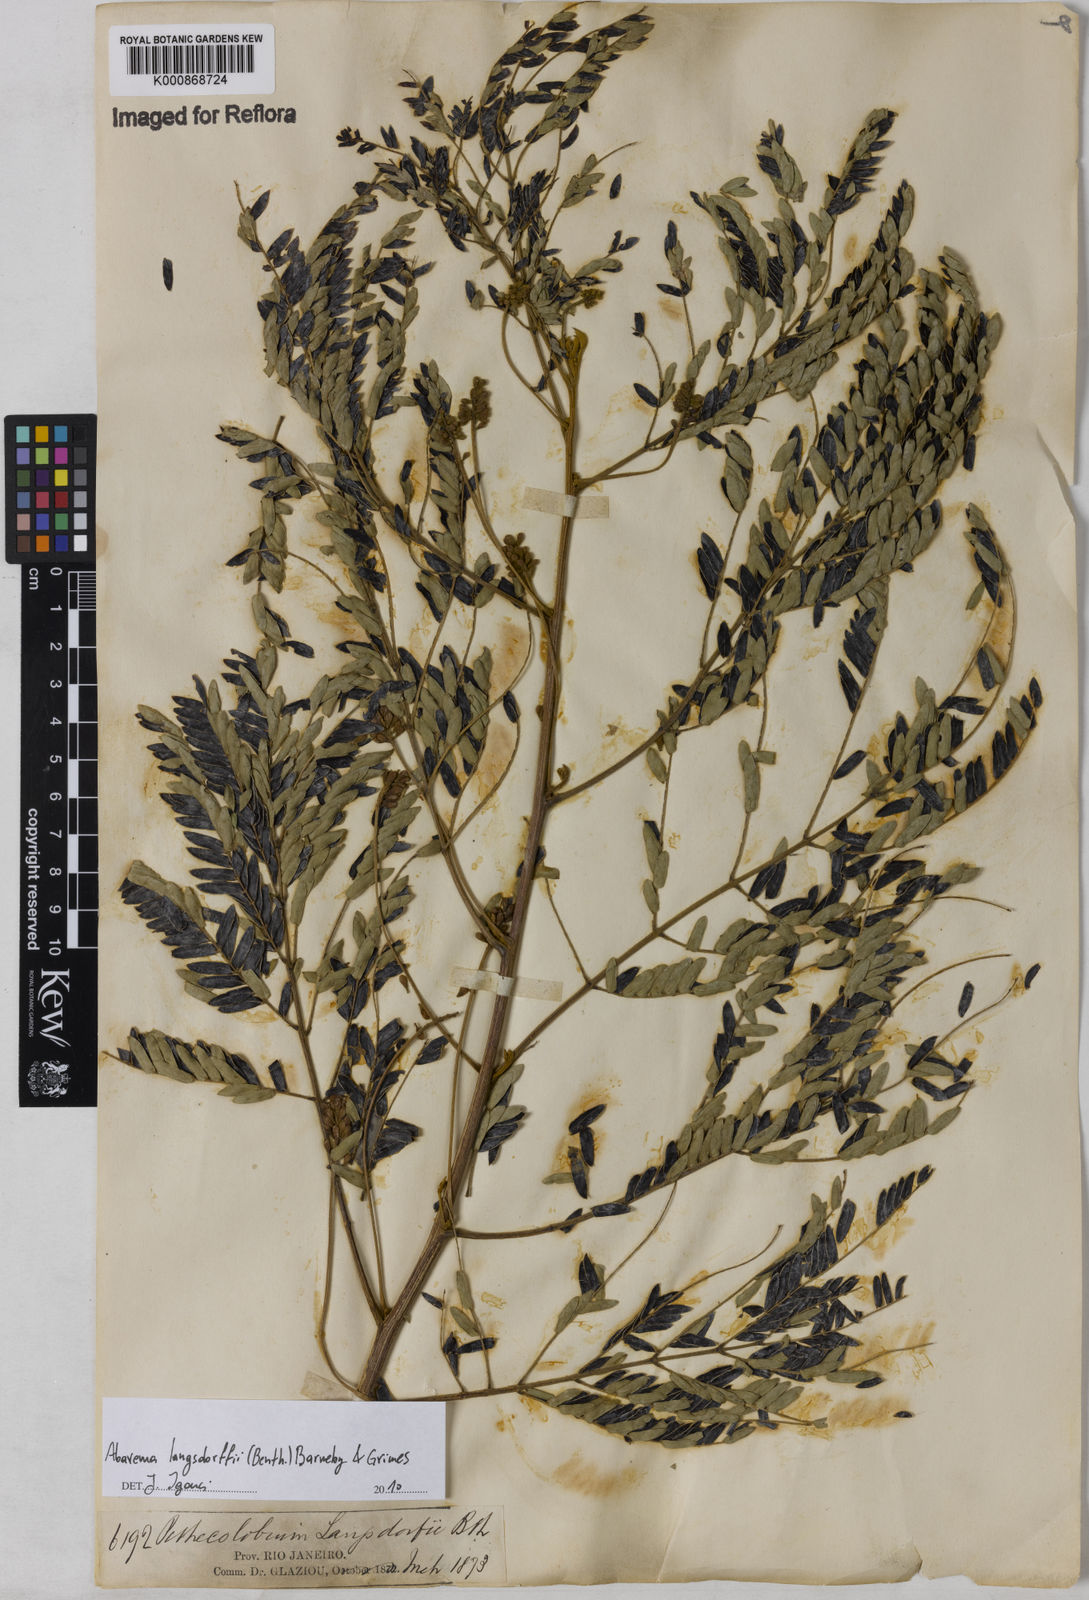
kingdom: Plantae
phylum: Tracheophyta
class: Magnoliopsida
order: Fabales
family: Fabaceae
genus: Jupunba
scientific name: Jupunba langsdorffii
